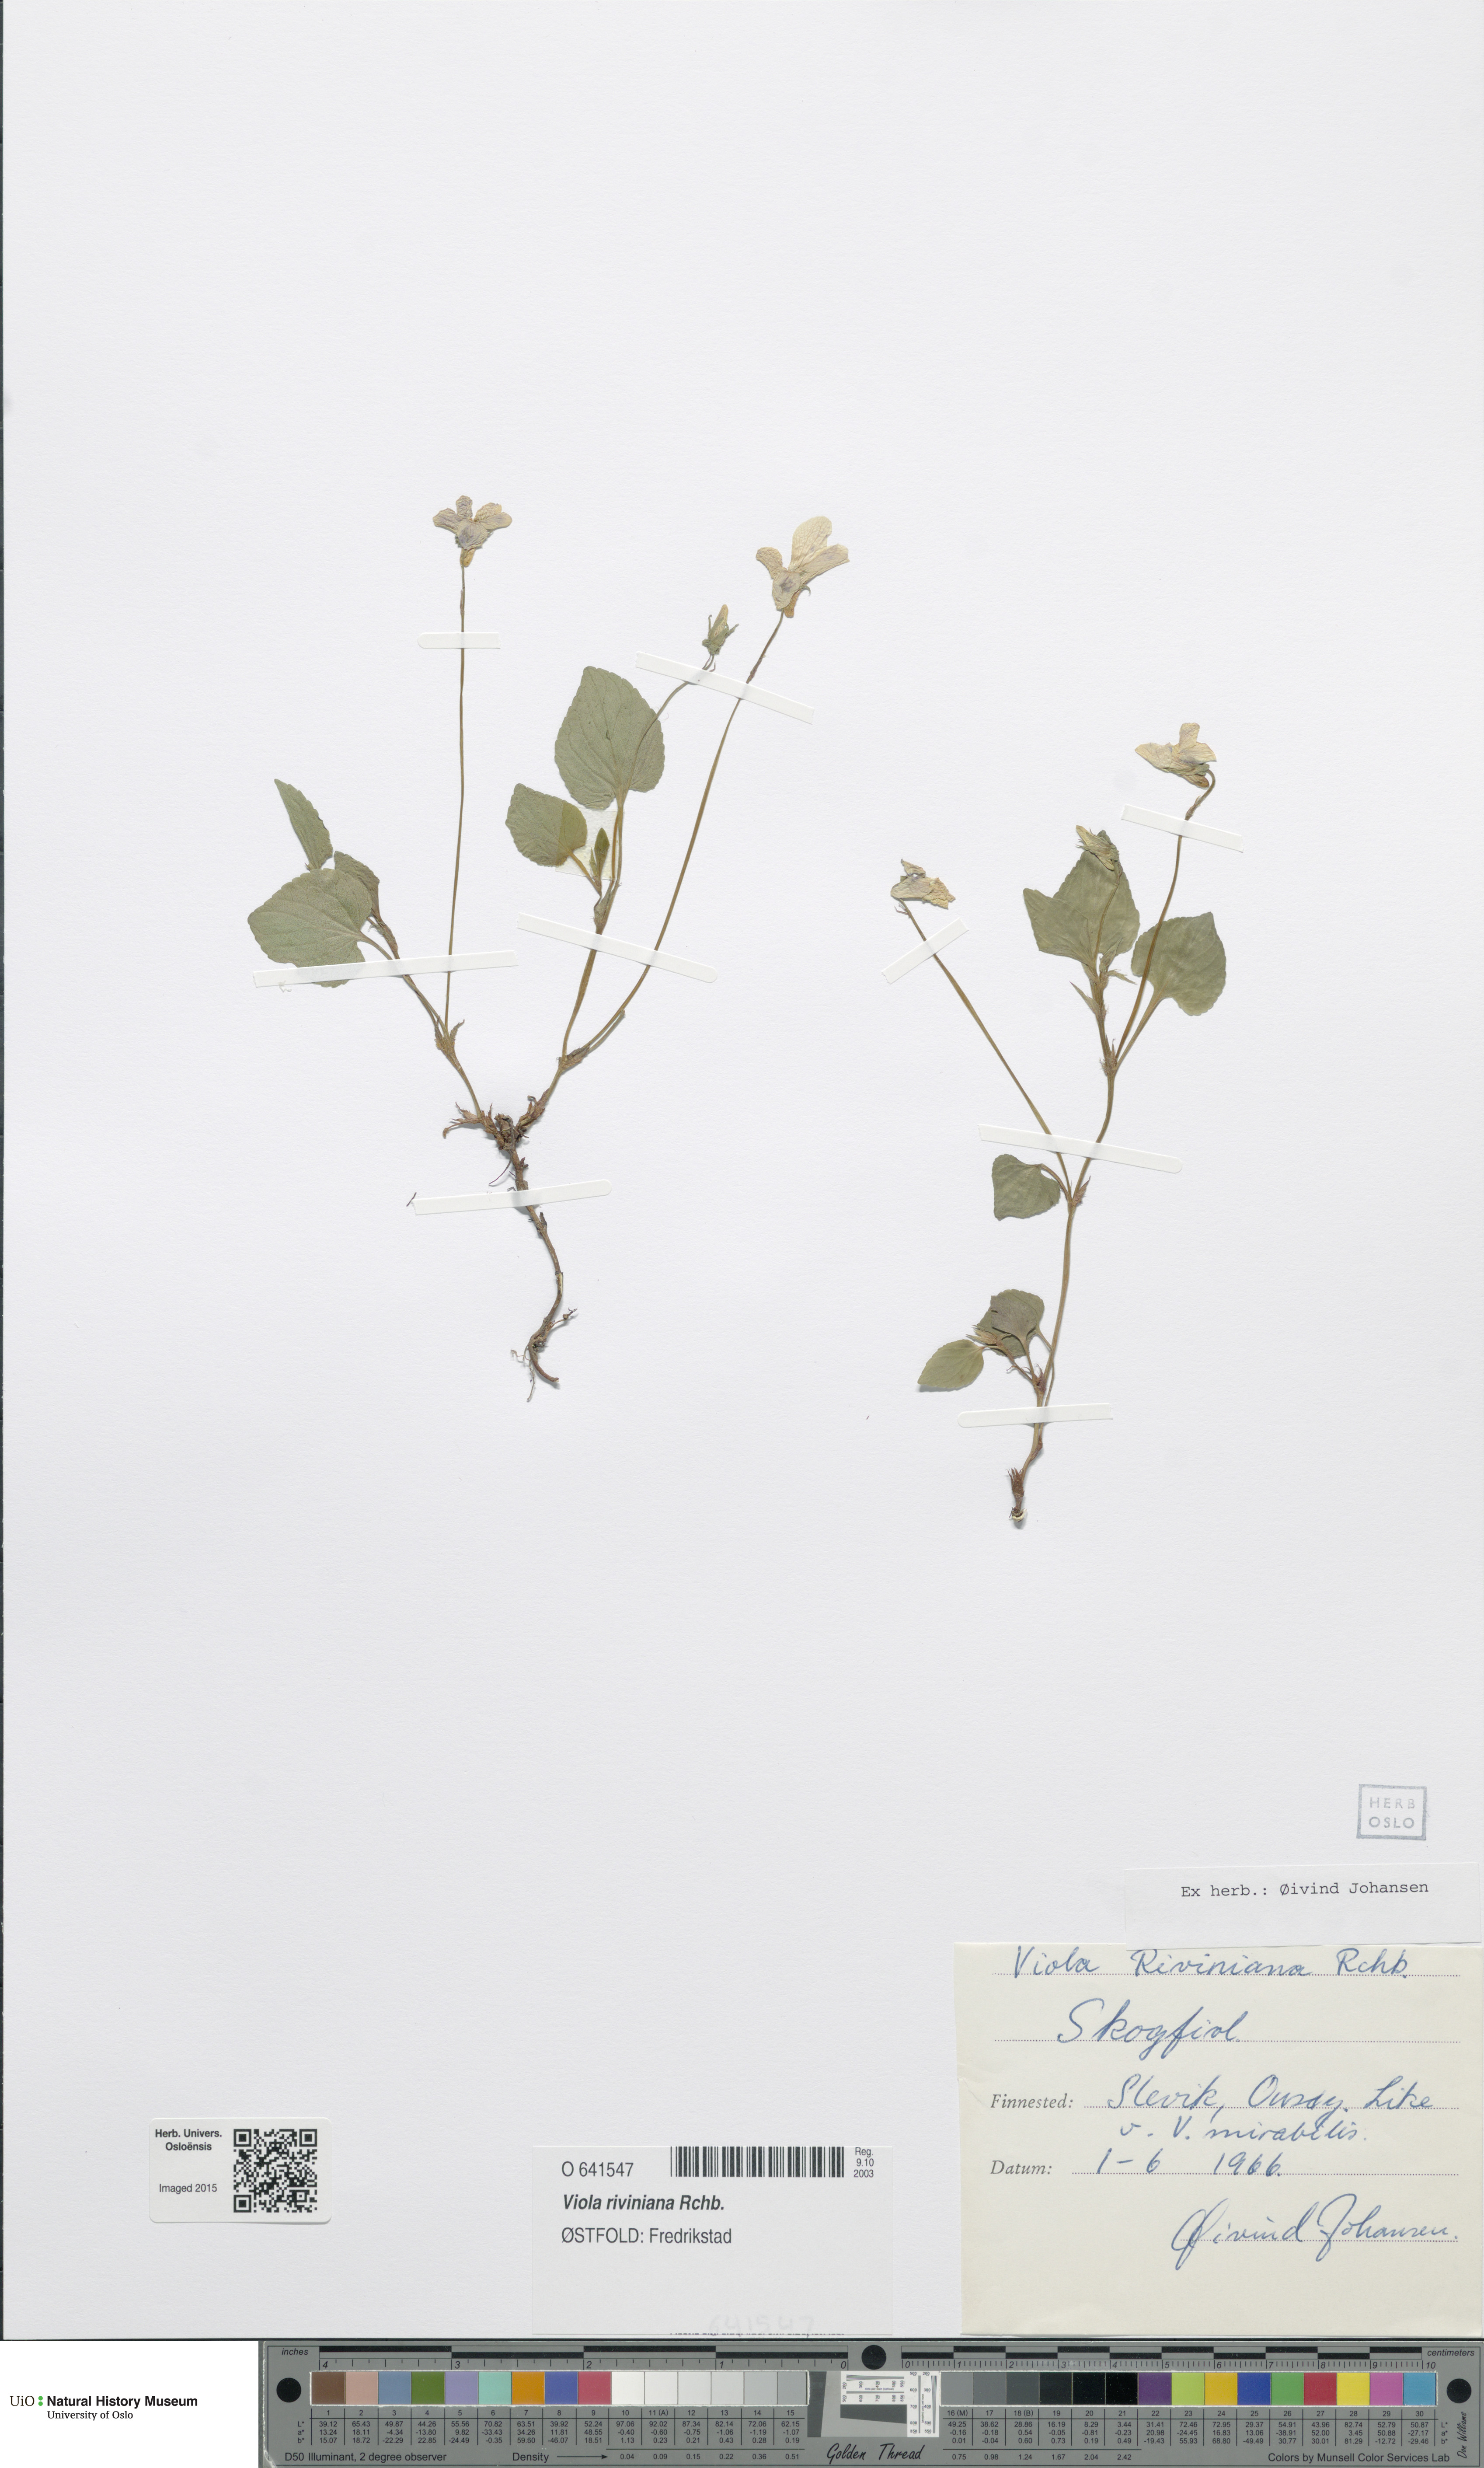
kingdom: Plantae
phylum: Tracheophyta
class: Magnoliopsida
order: Malpighiales
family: Violaceae
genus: Viola
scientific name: Viola riviniana
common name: Common dog-violet
